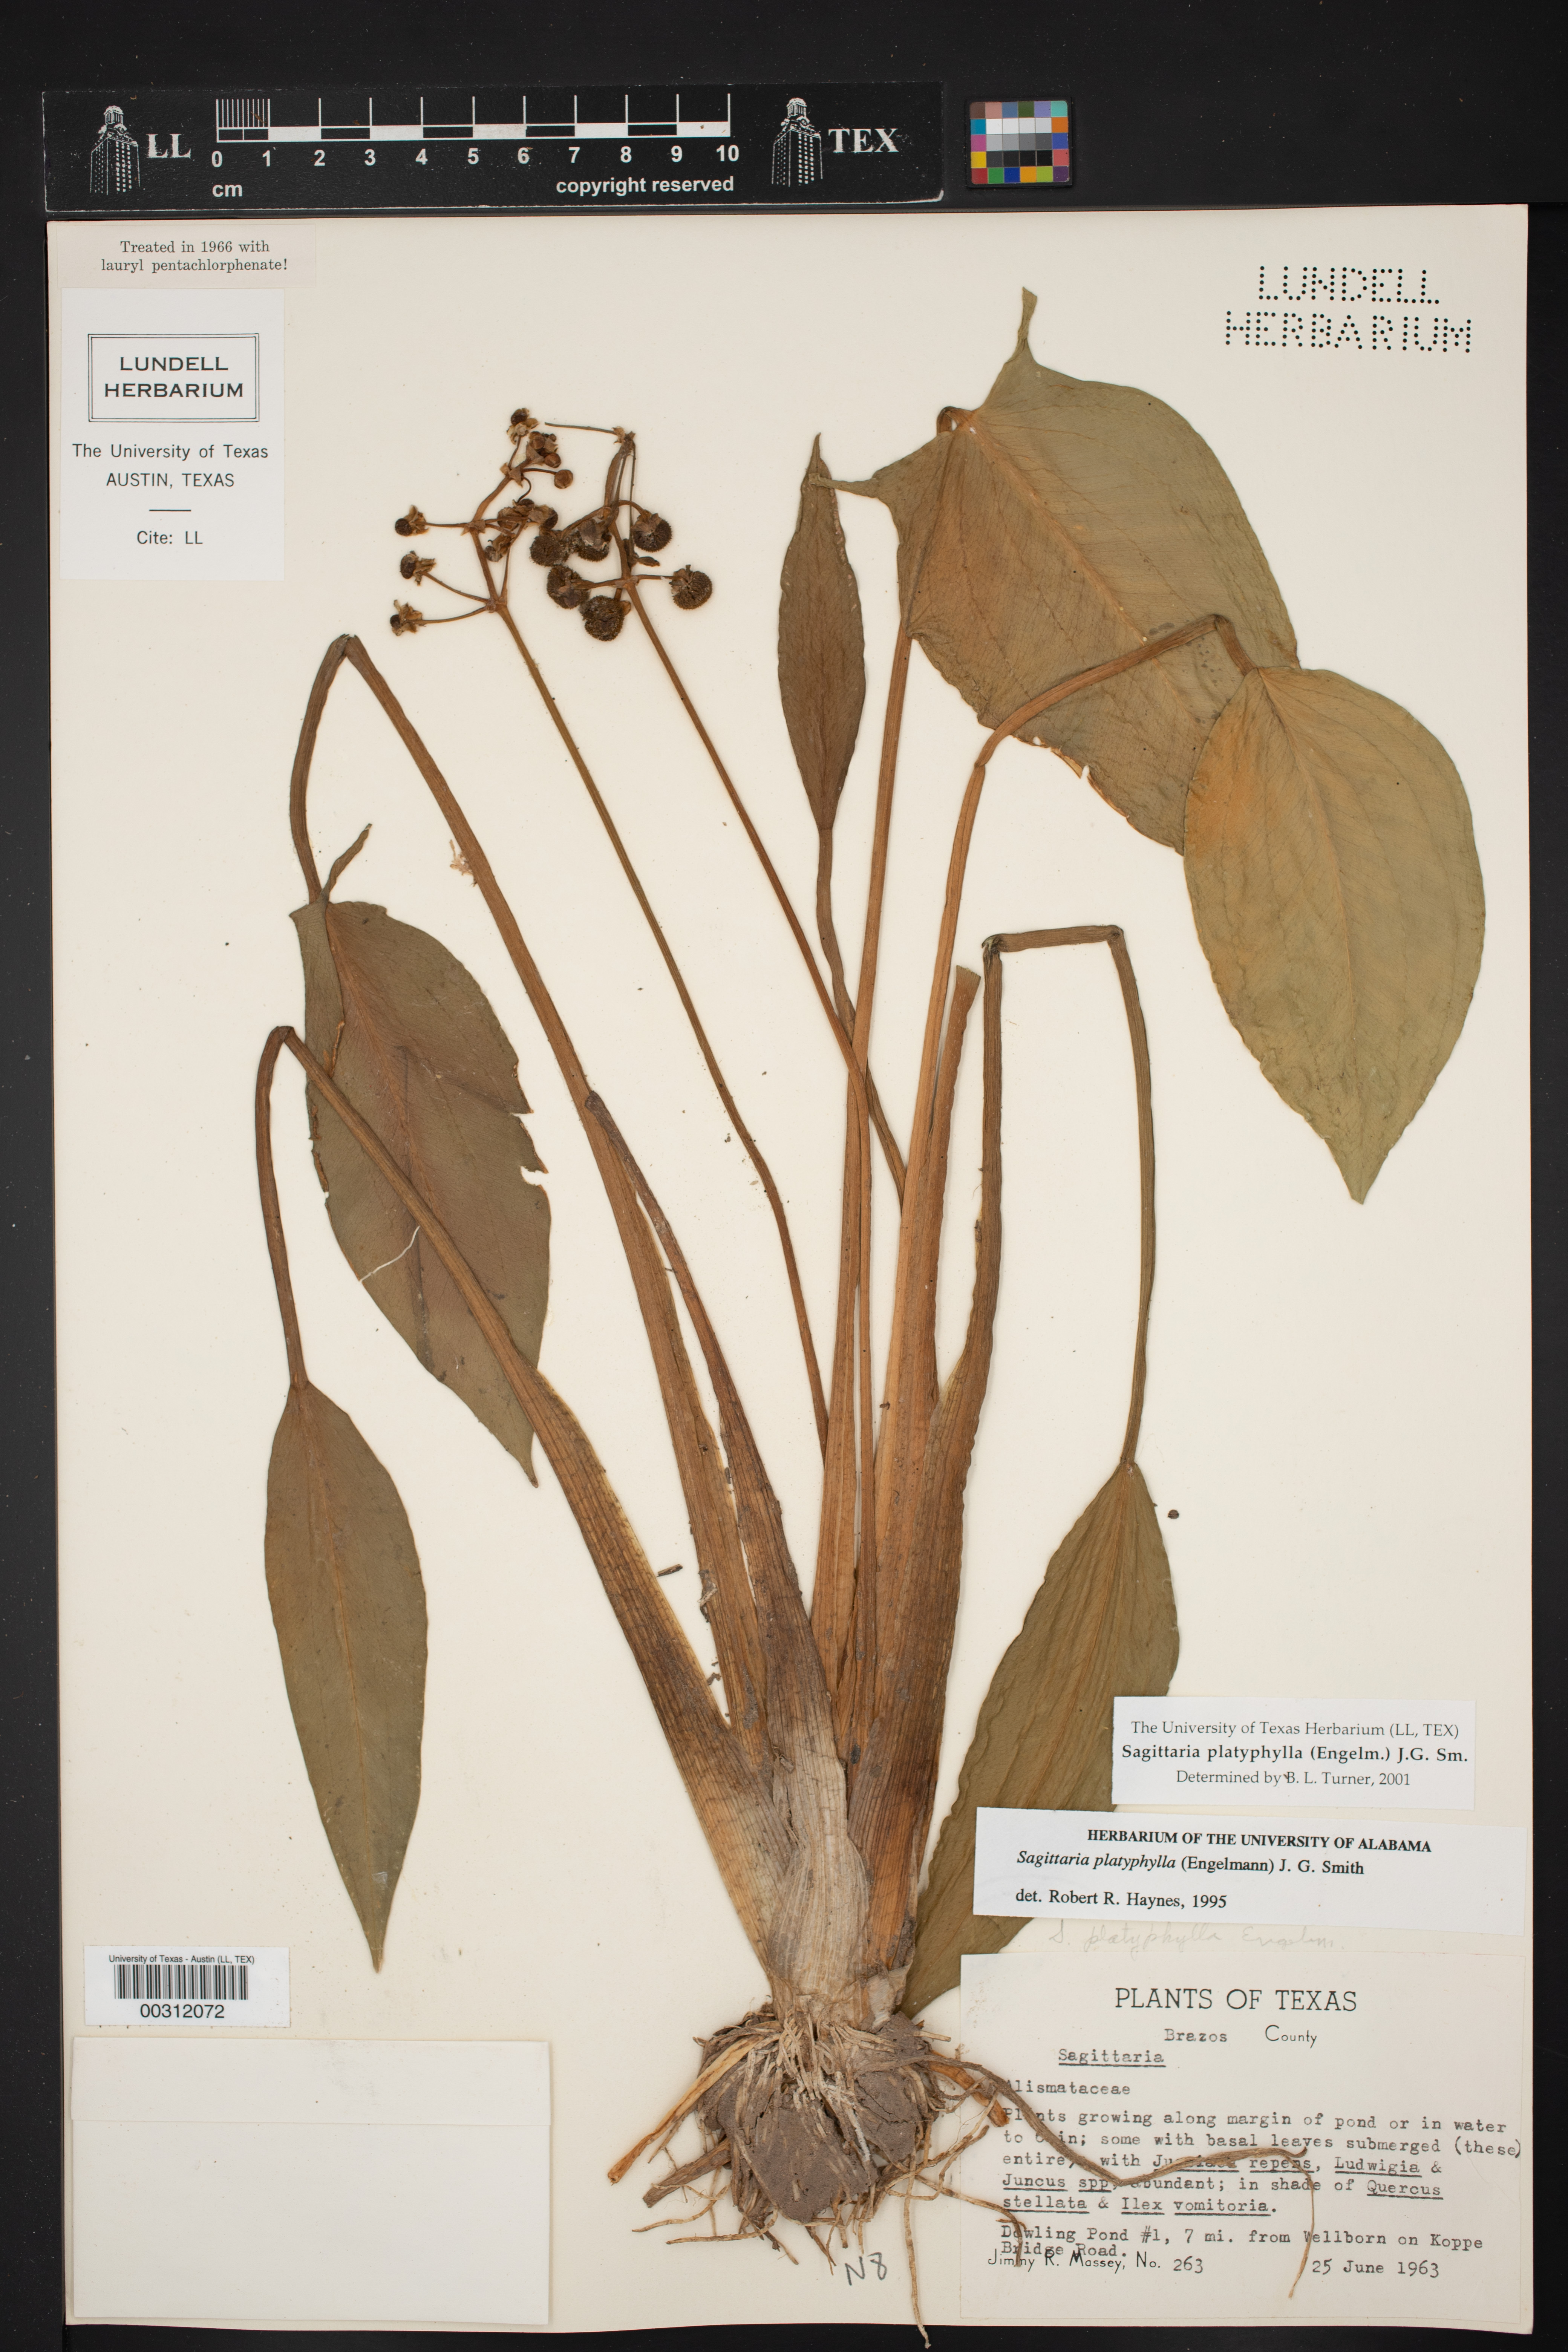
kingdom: Plantae
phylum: Tracheophyta
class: Liliopsida
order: Alismatales
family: Alismataceae
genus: Sagittaria
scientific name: Sagittaria platyphylla
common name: Broad-leaf arrowhead
